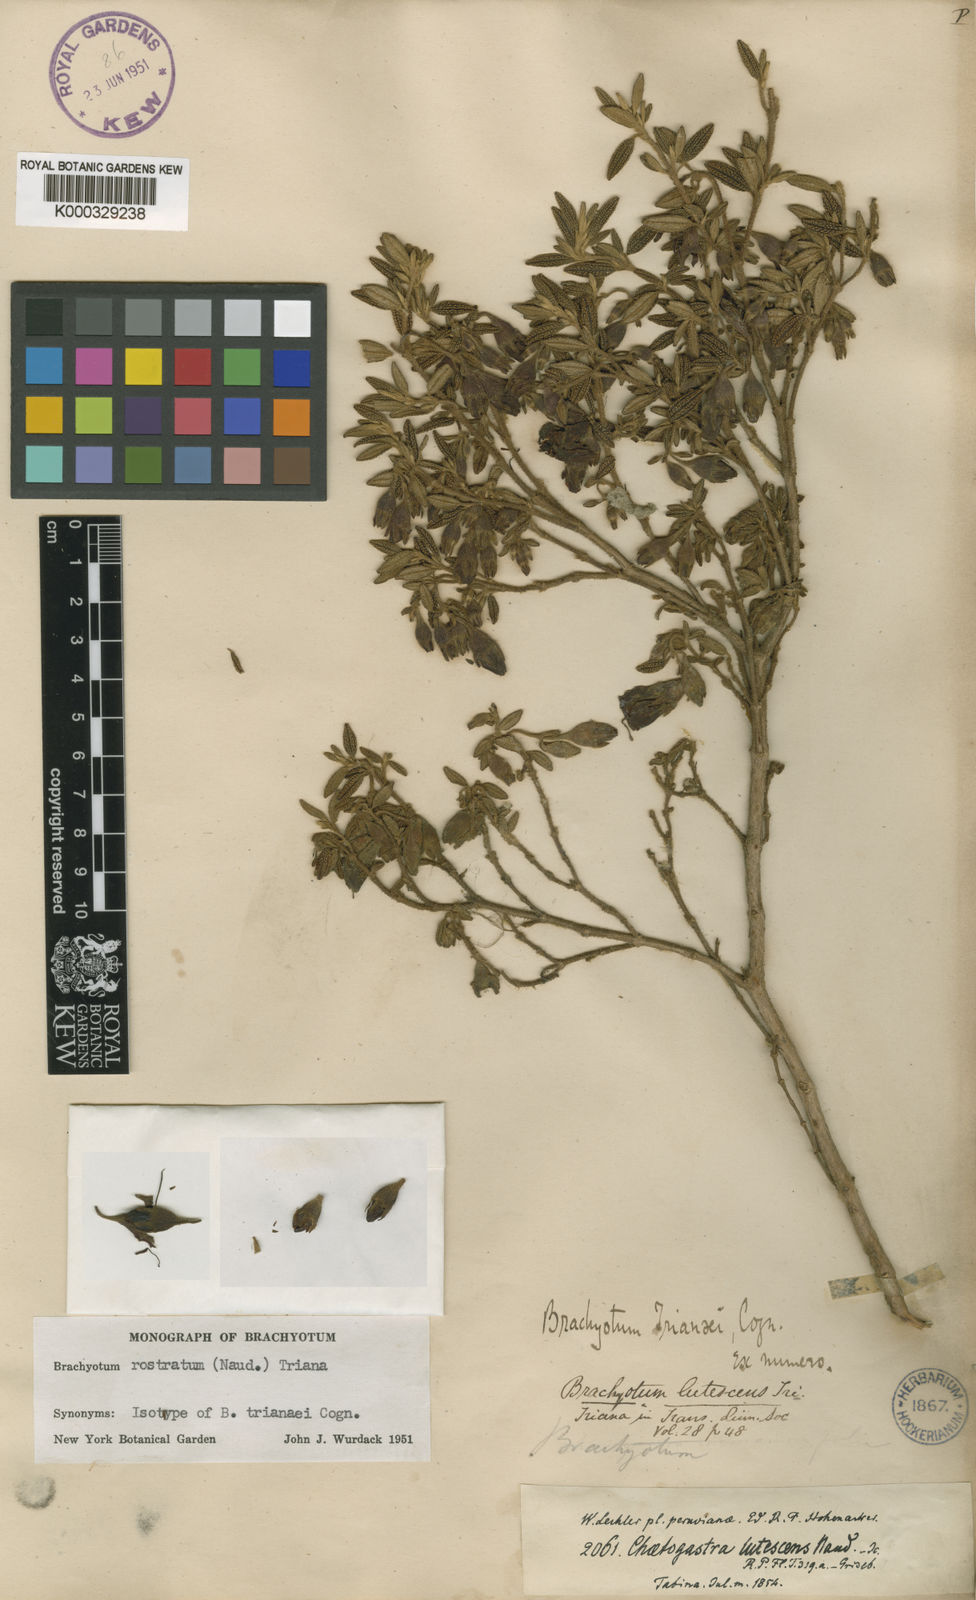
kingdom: Plantae
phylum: Tracheophyta
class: Magnoliopsida
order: Myrtales
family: Melastomataceae
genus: Brachyotum
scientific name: Brachyotum rostratum
